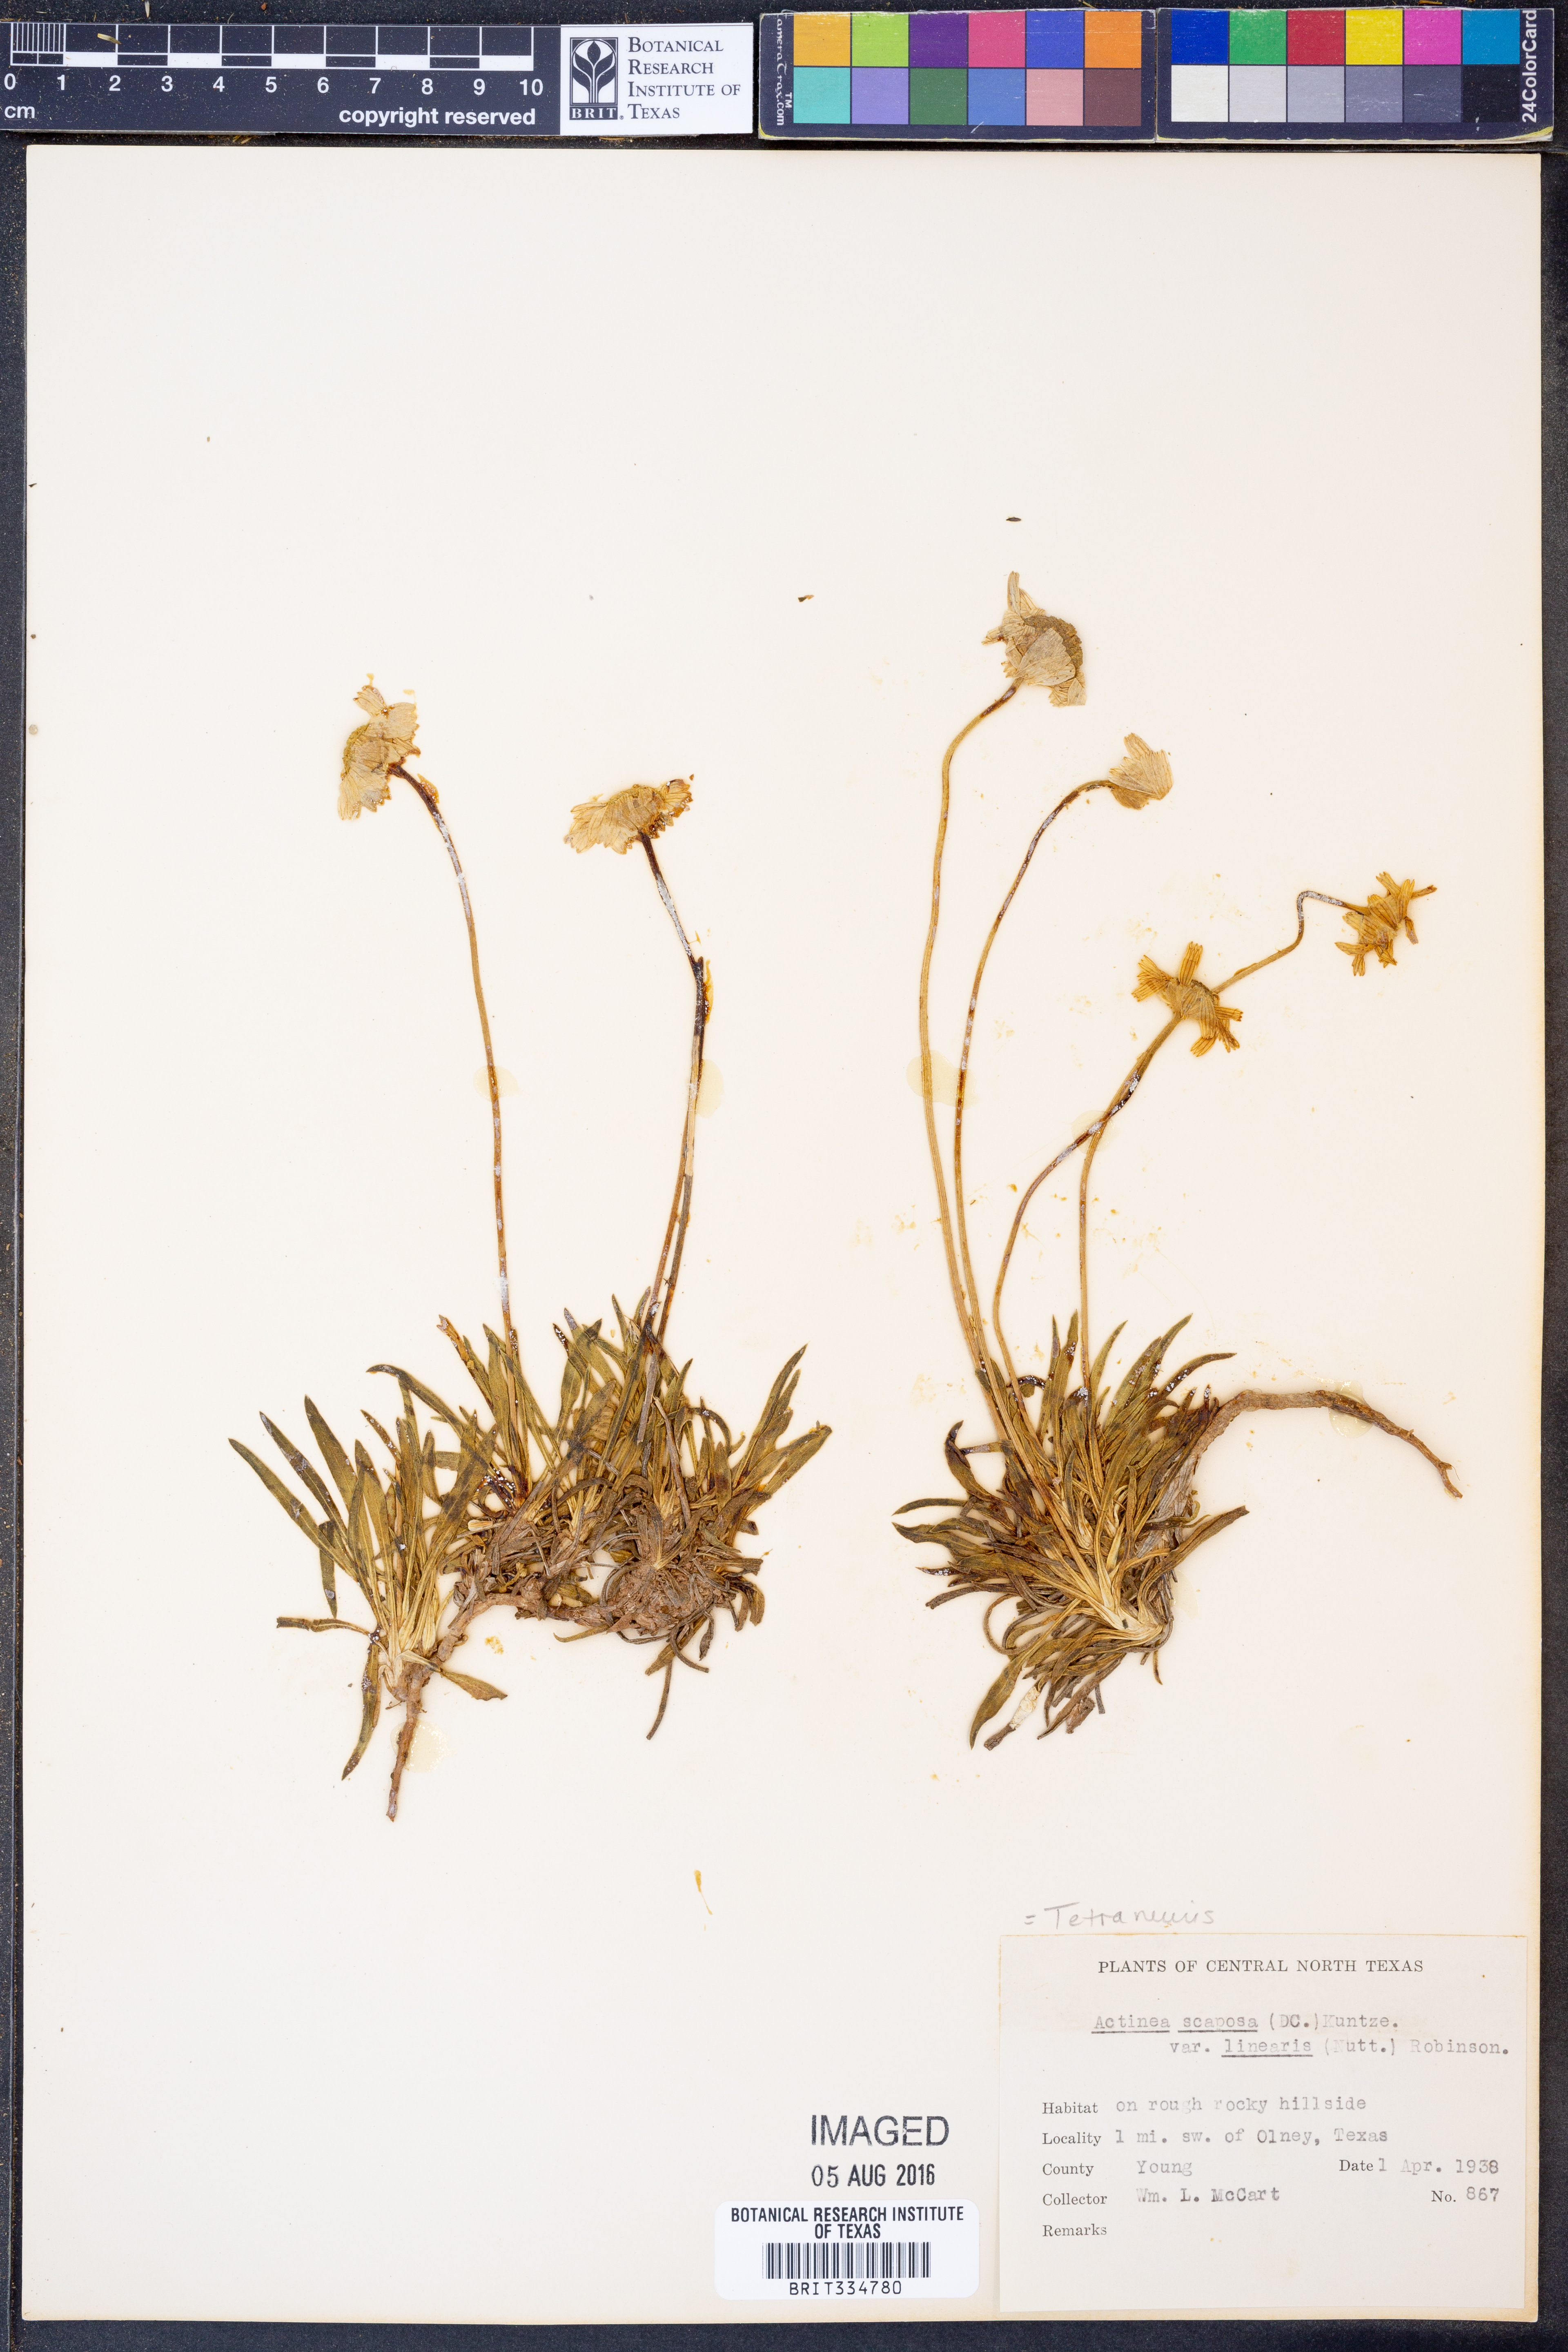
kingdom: Plantae
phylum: Tracheophyta
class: Magnoliopsida
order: Asterales
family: Asteraceae
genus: Tetraneuris
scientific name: Tetraneuris scaposa
